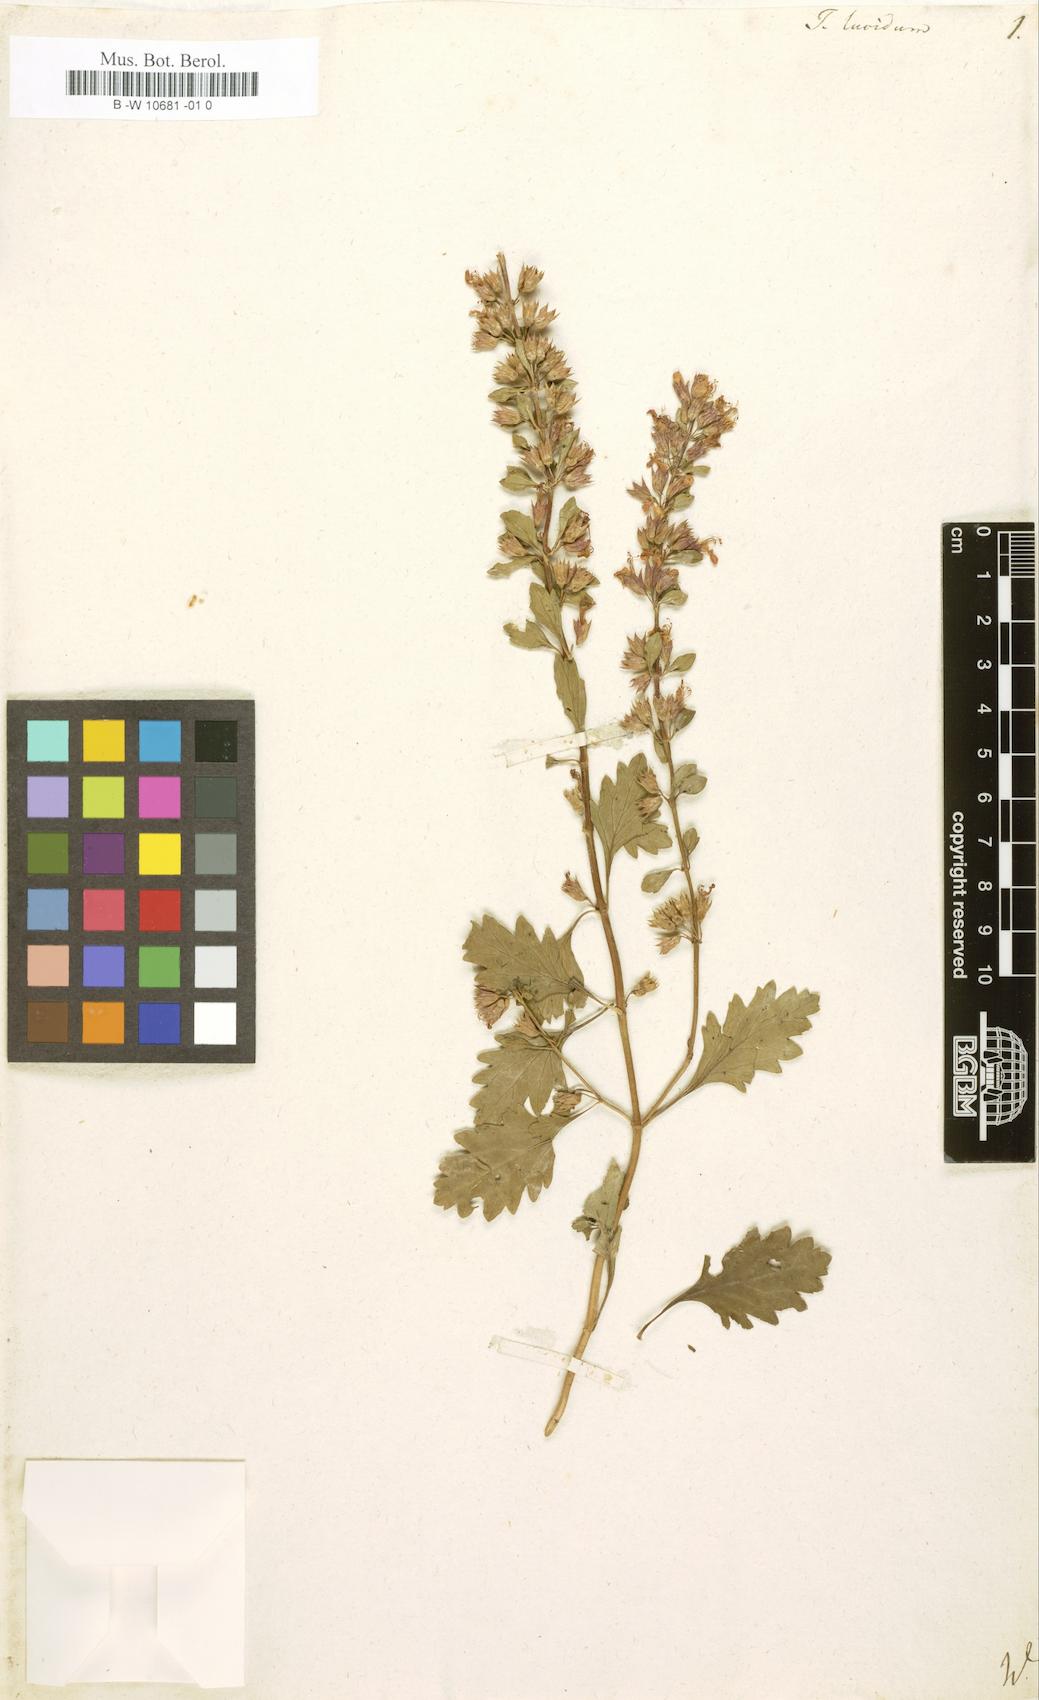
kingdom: Plantae
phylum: Tracheophyta
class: Magnoliopsida
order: Lamiales
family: Lamiaceae
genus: Teucrium
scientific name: Teucrium lucidum
